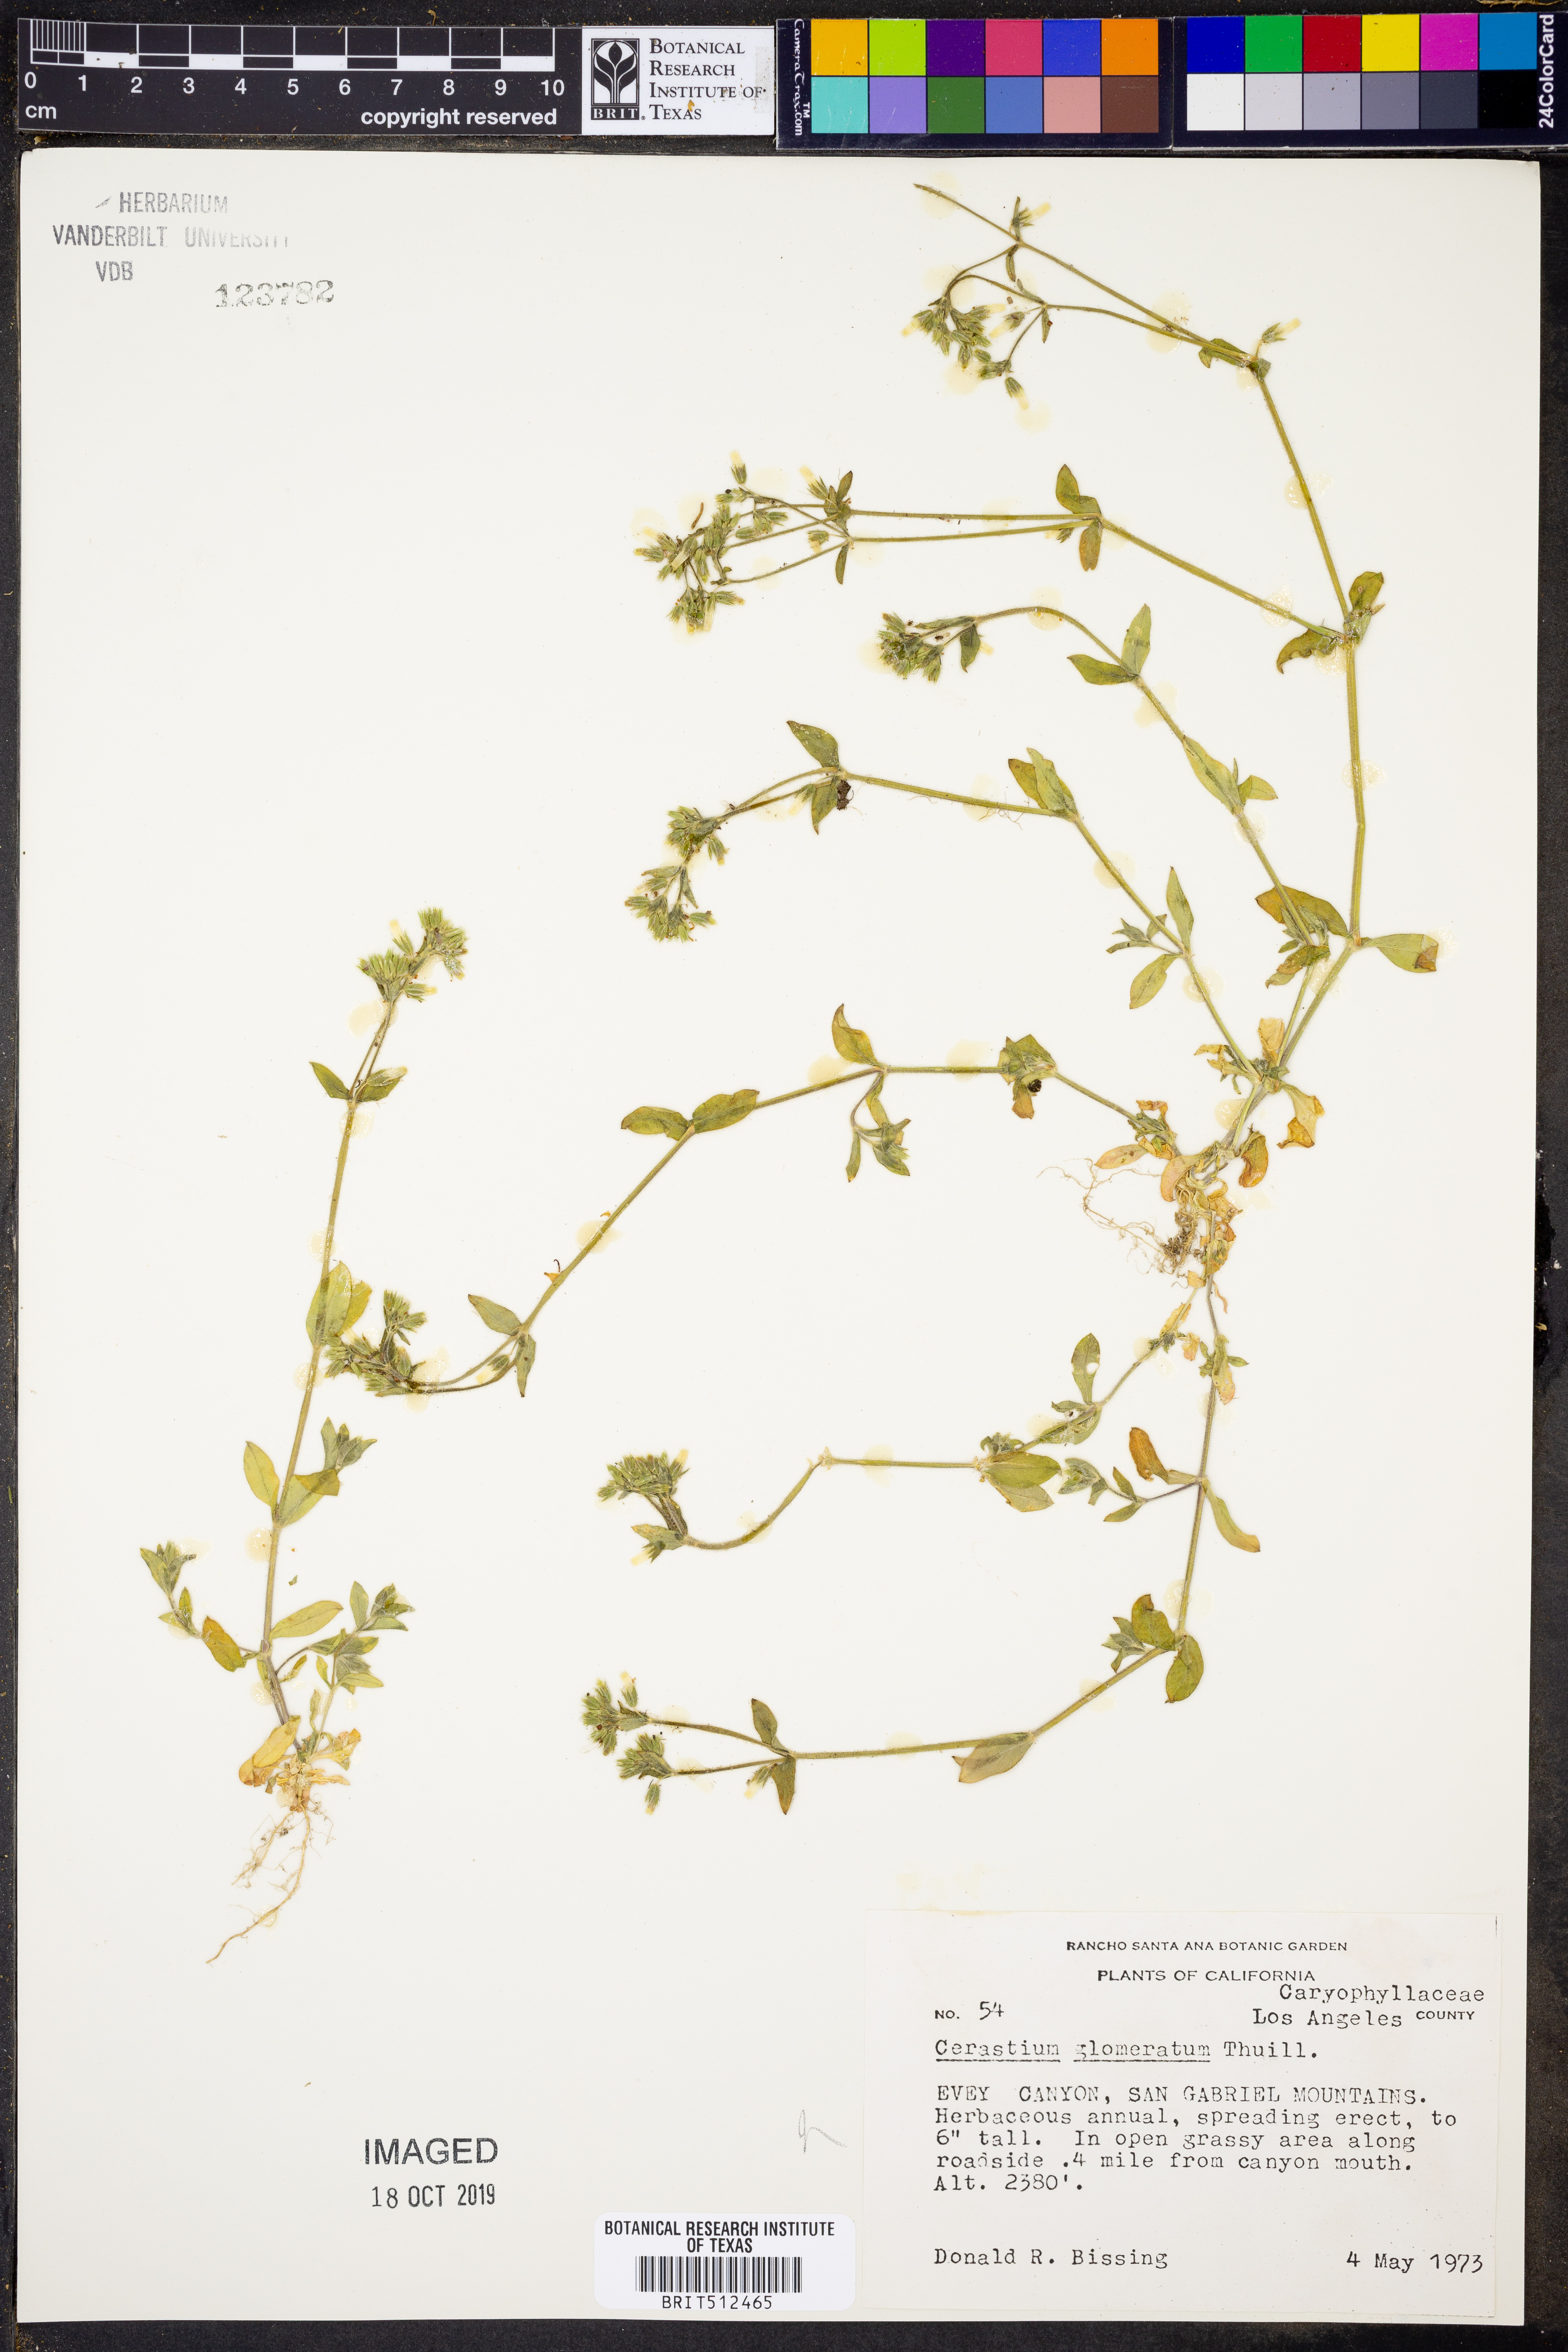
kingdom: Plantae
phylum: Tracheophyta
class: Magnoliopsida
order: Caryophyllales
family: Caryophyllaceae
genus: Cerastium
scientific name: Cerastium glomeratum
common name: Sticky chickweed
